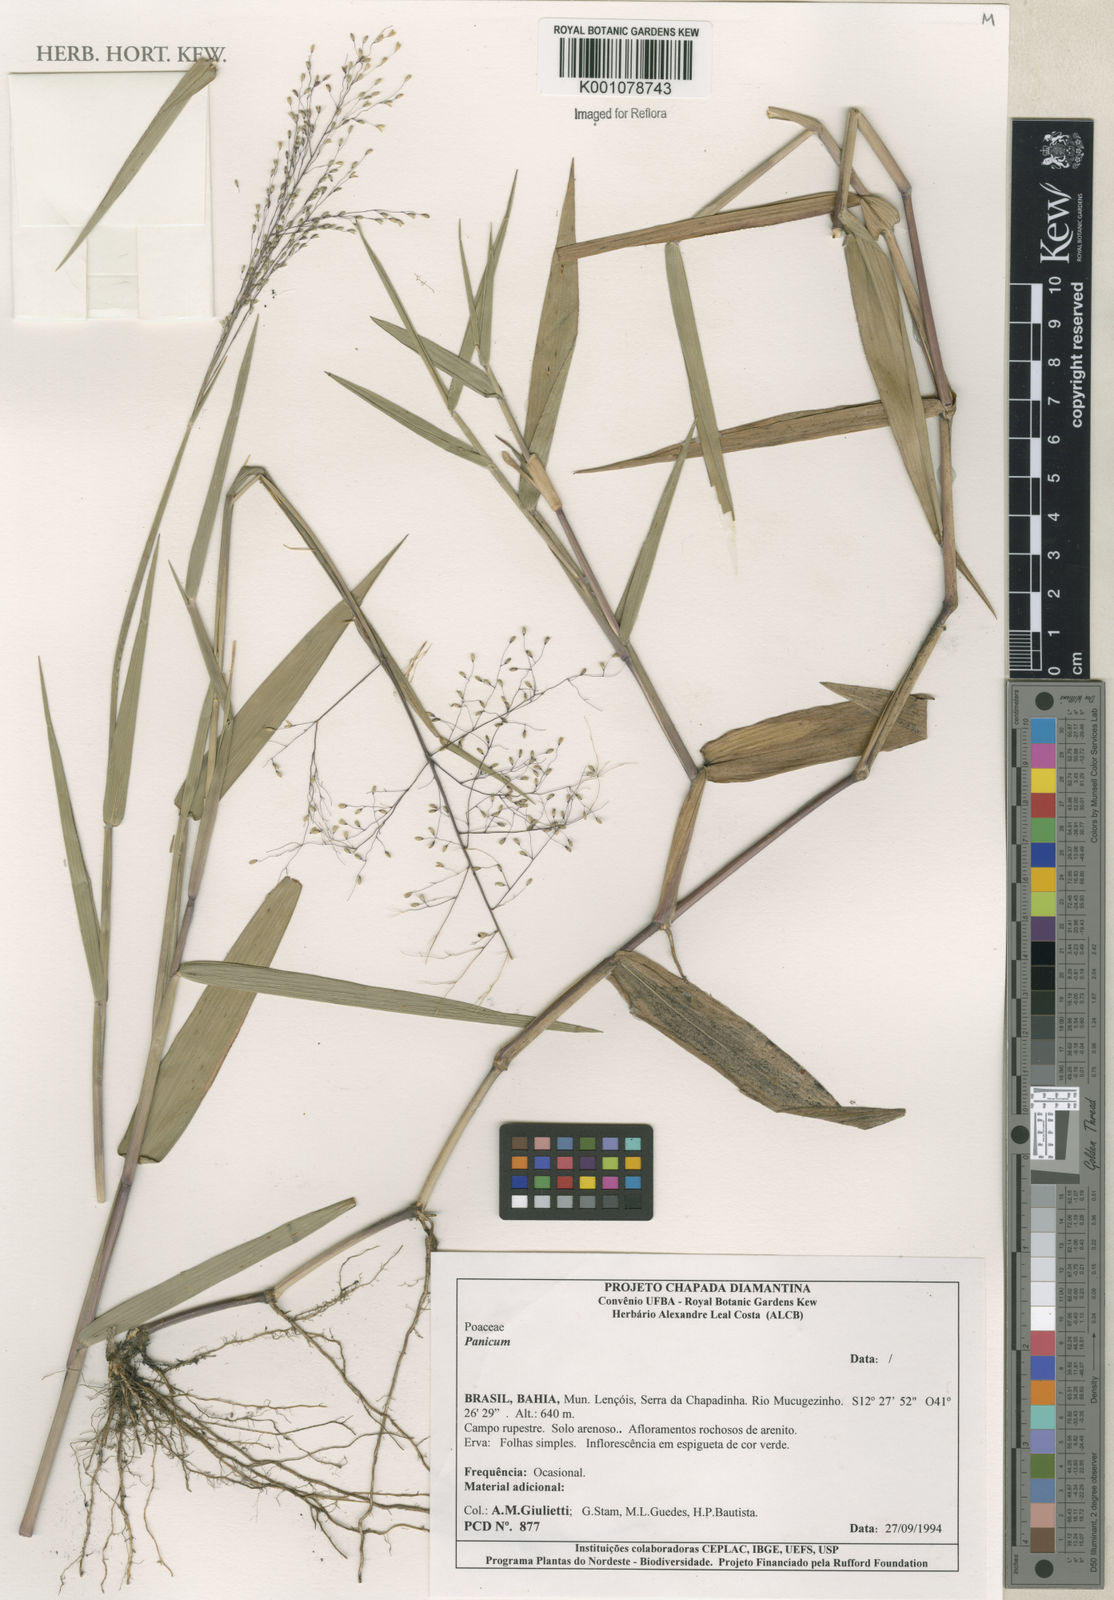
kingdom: Plantae
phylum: Tracheophyta
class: Liliopsida
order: Poales
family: Poaceae
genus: Panicum
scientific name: Panicum
